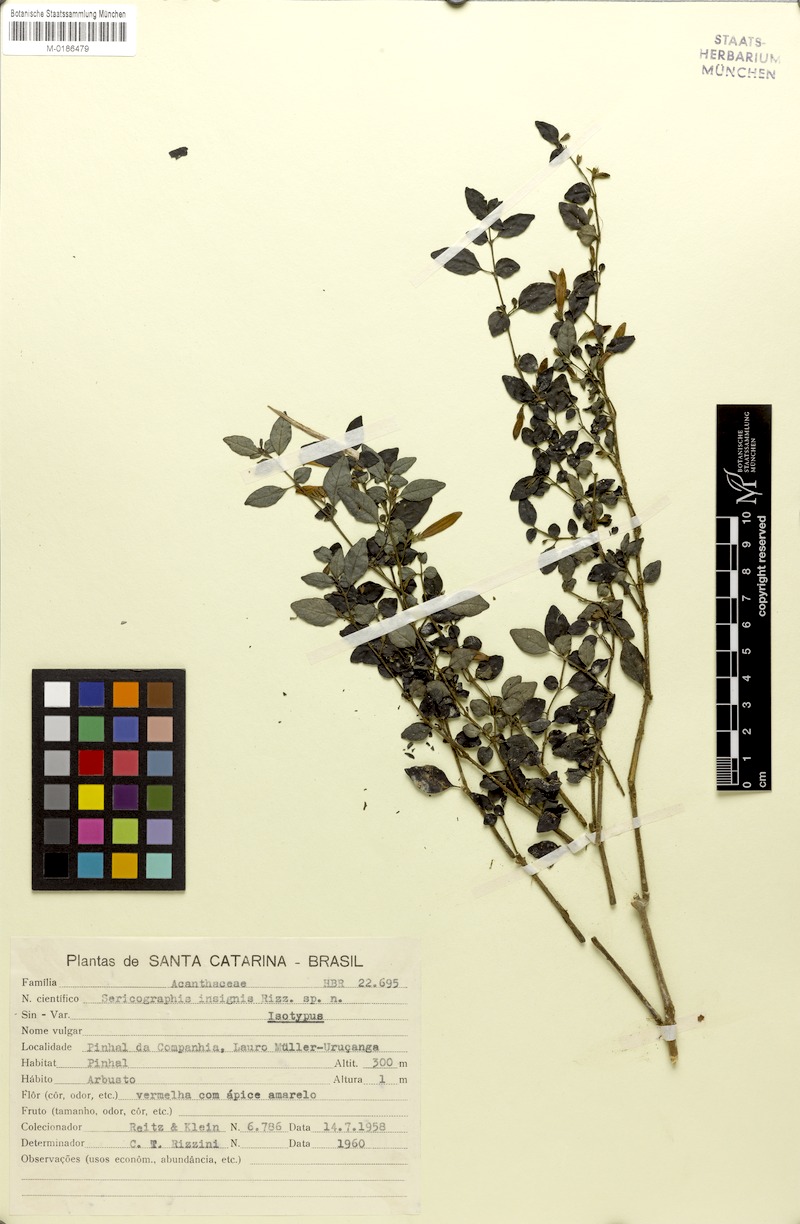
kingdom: Plantae
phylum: Tracheophyta
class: Magnoliopsida
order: Lamiales
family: Acanthaceae
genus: Justicia
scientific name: Justicia
